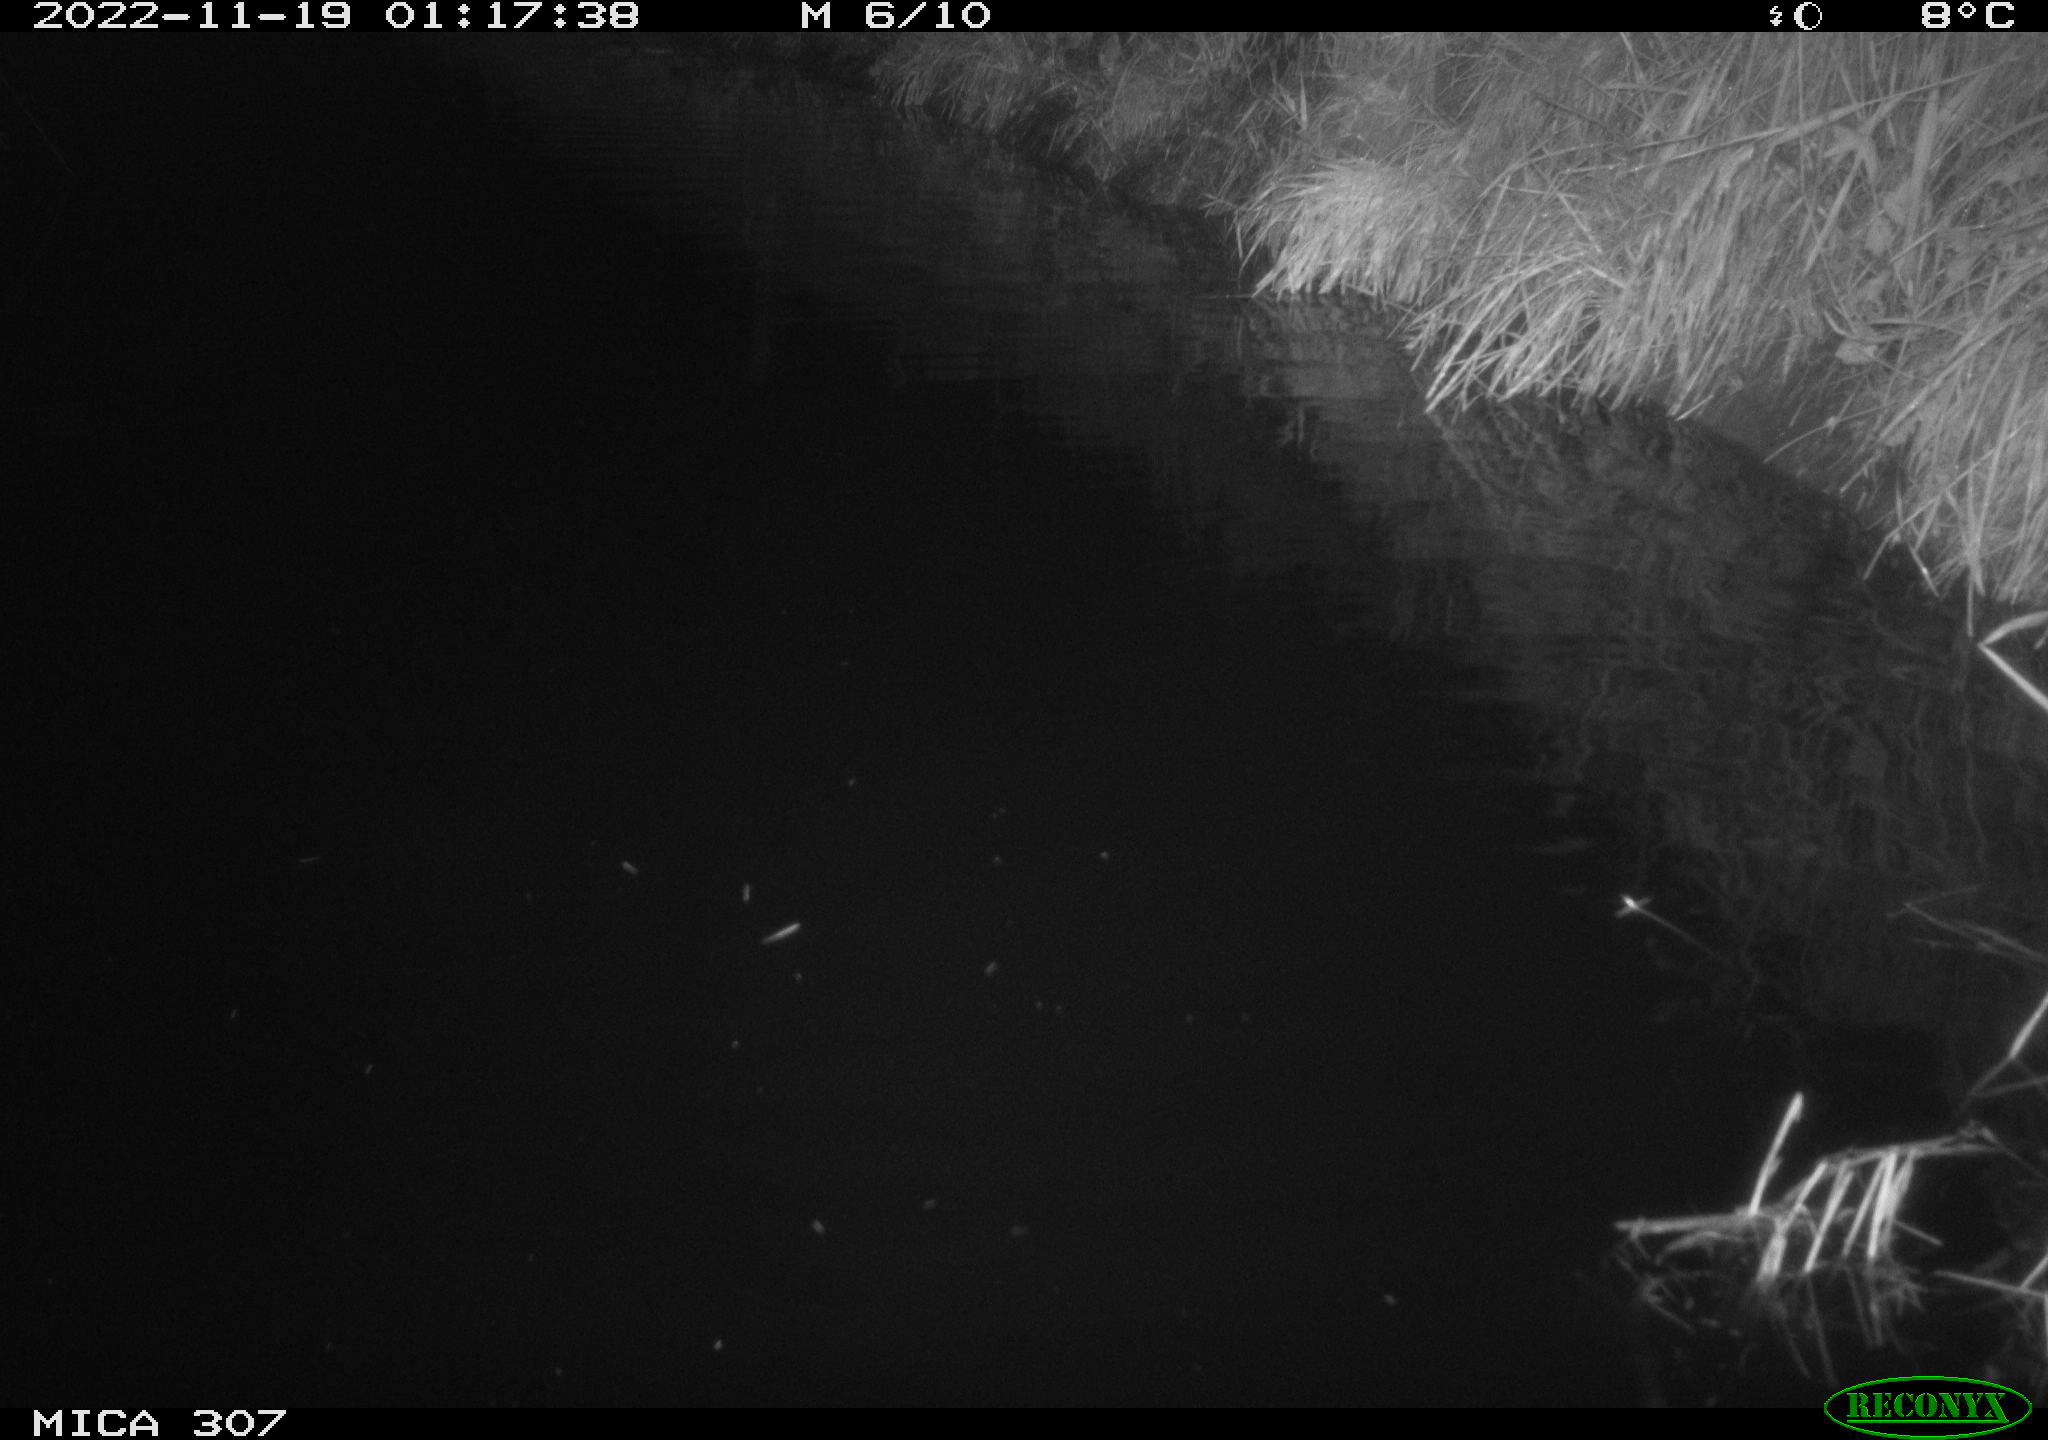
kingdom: Animalia
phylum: Chordata
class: Mammalia
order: Rodentia
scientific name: Rodentia
